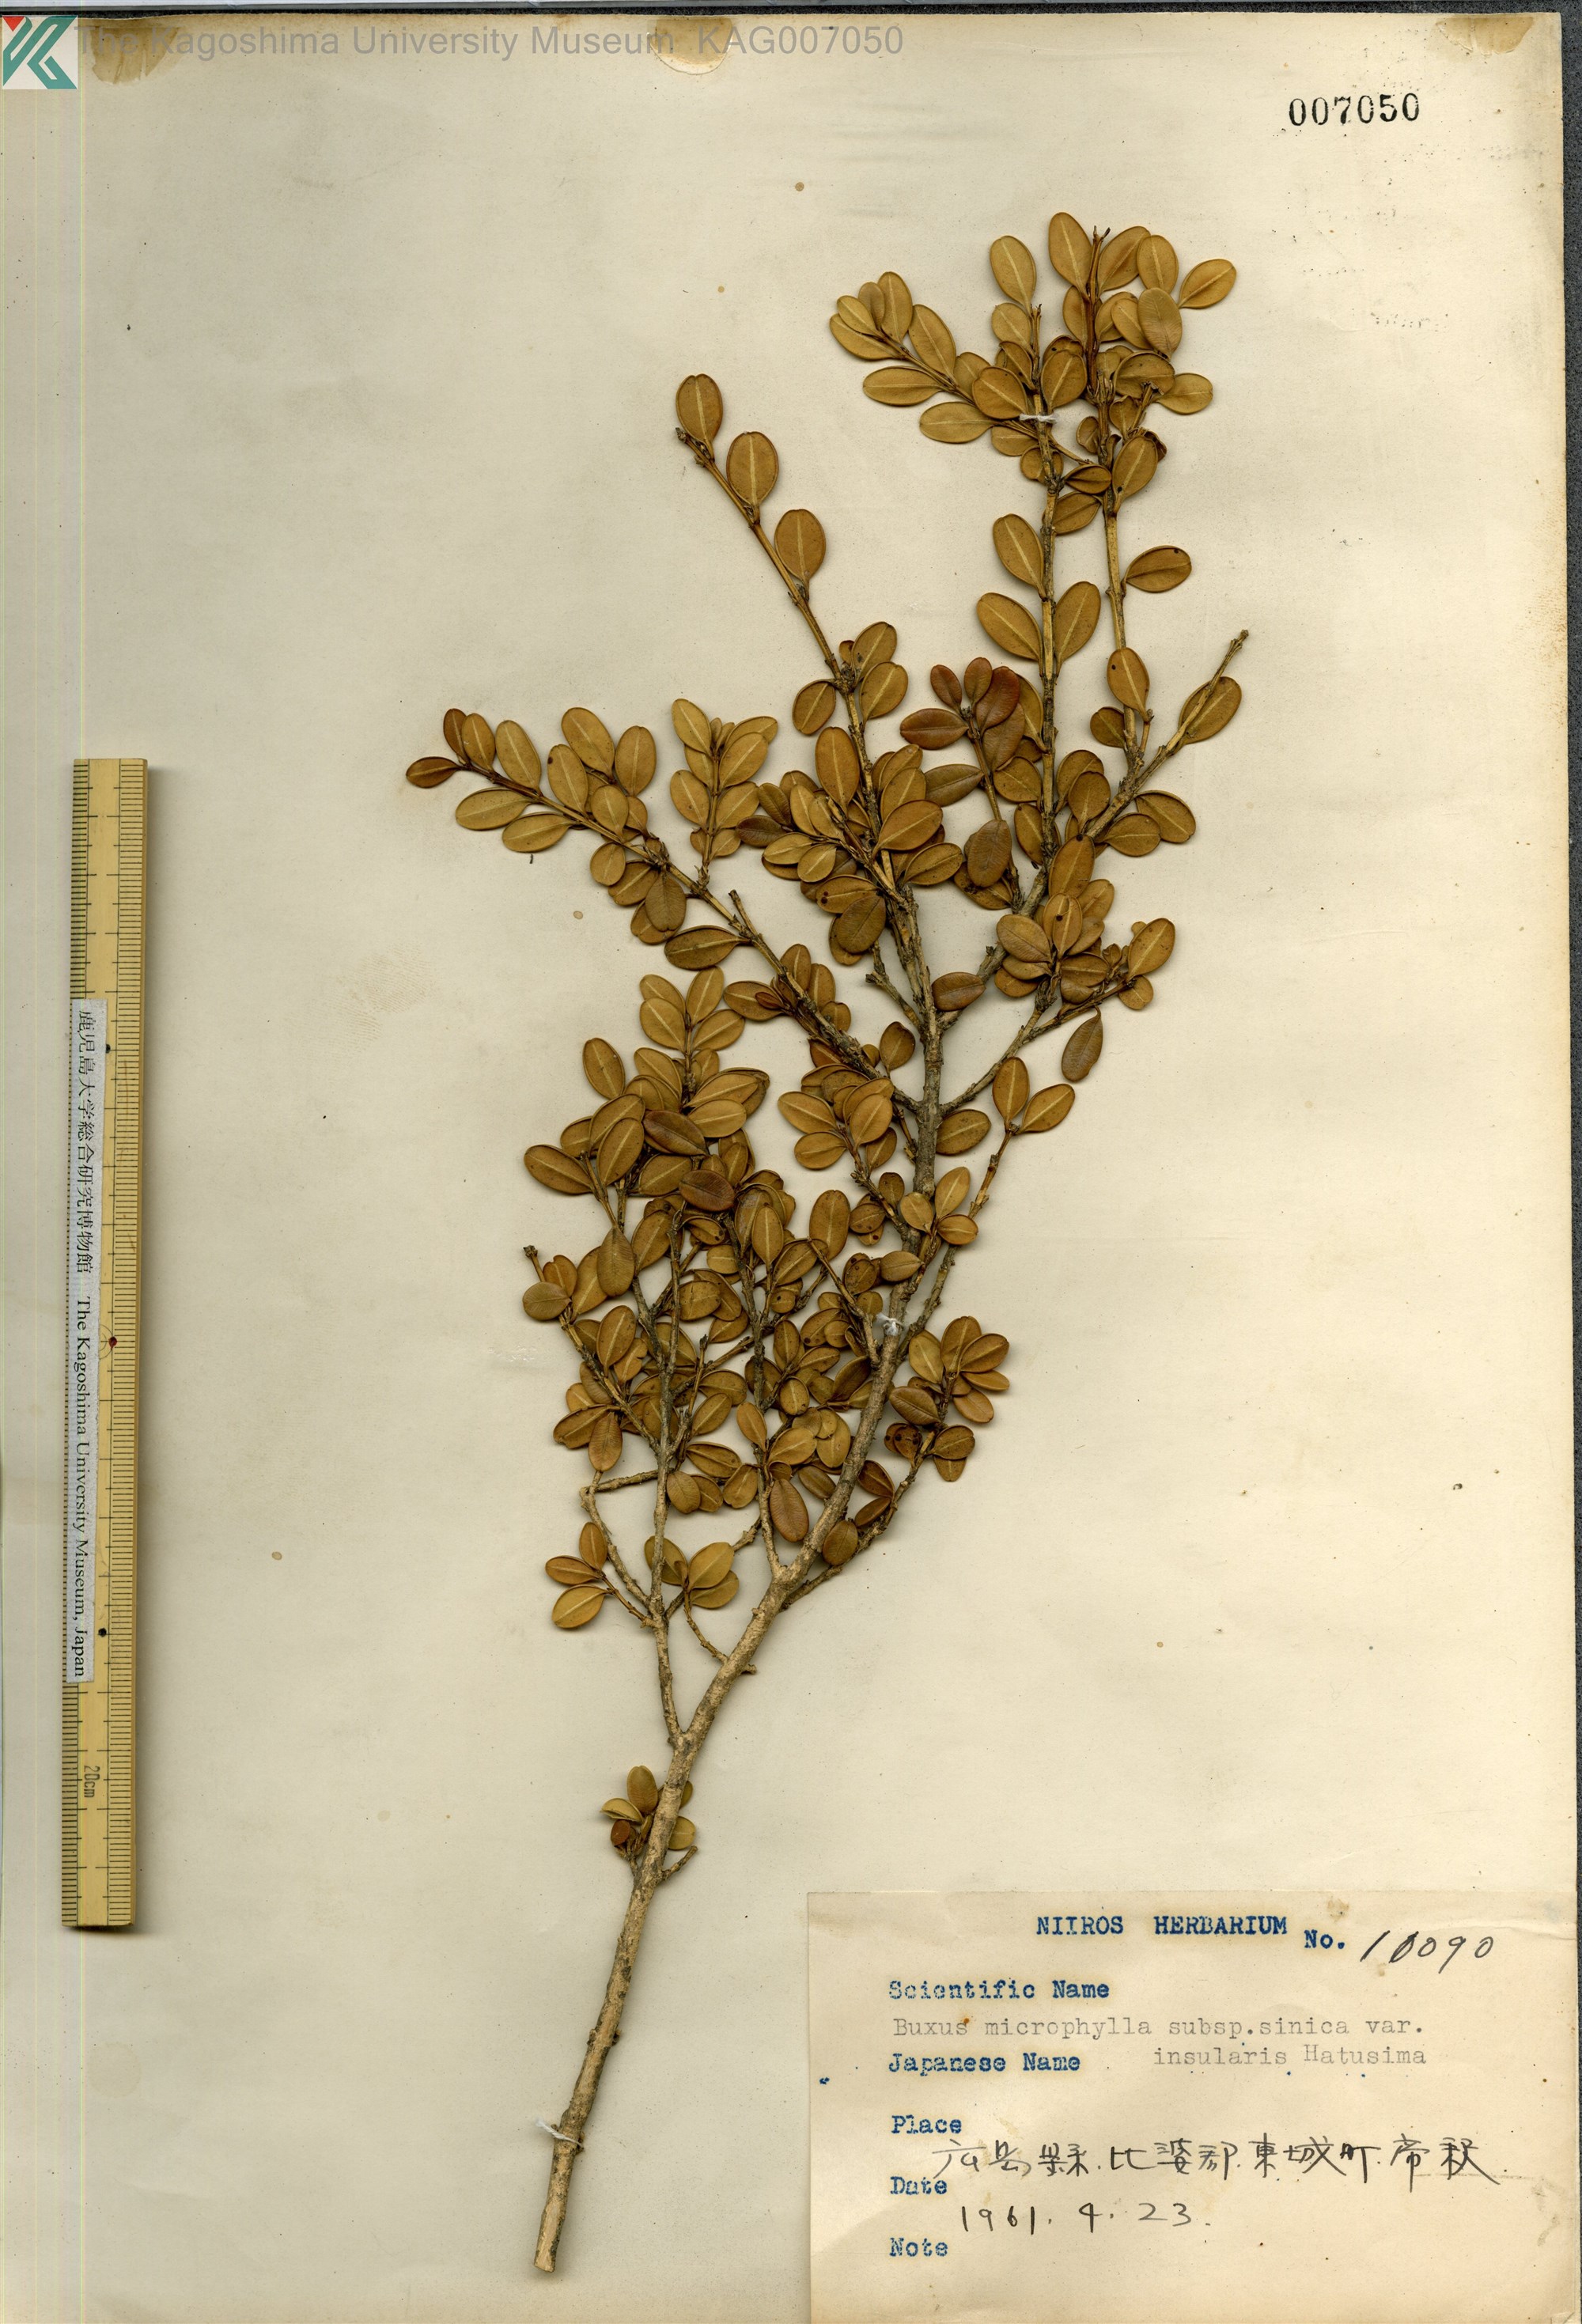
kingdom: Plantae
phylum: Tracheophyta
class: Magnoliopsida
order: Buxales
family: Buxaceae
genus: Buxus
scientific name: Buxus sinica
